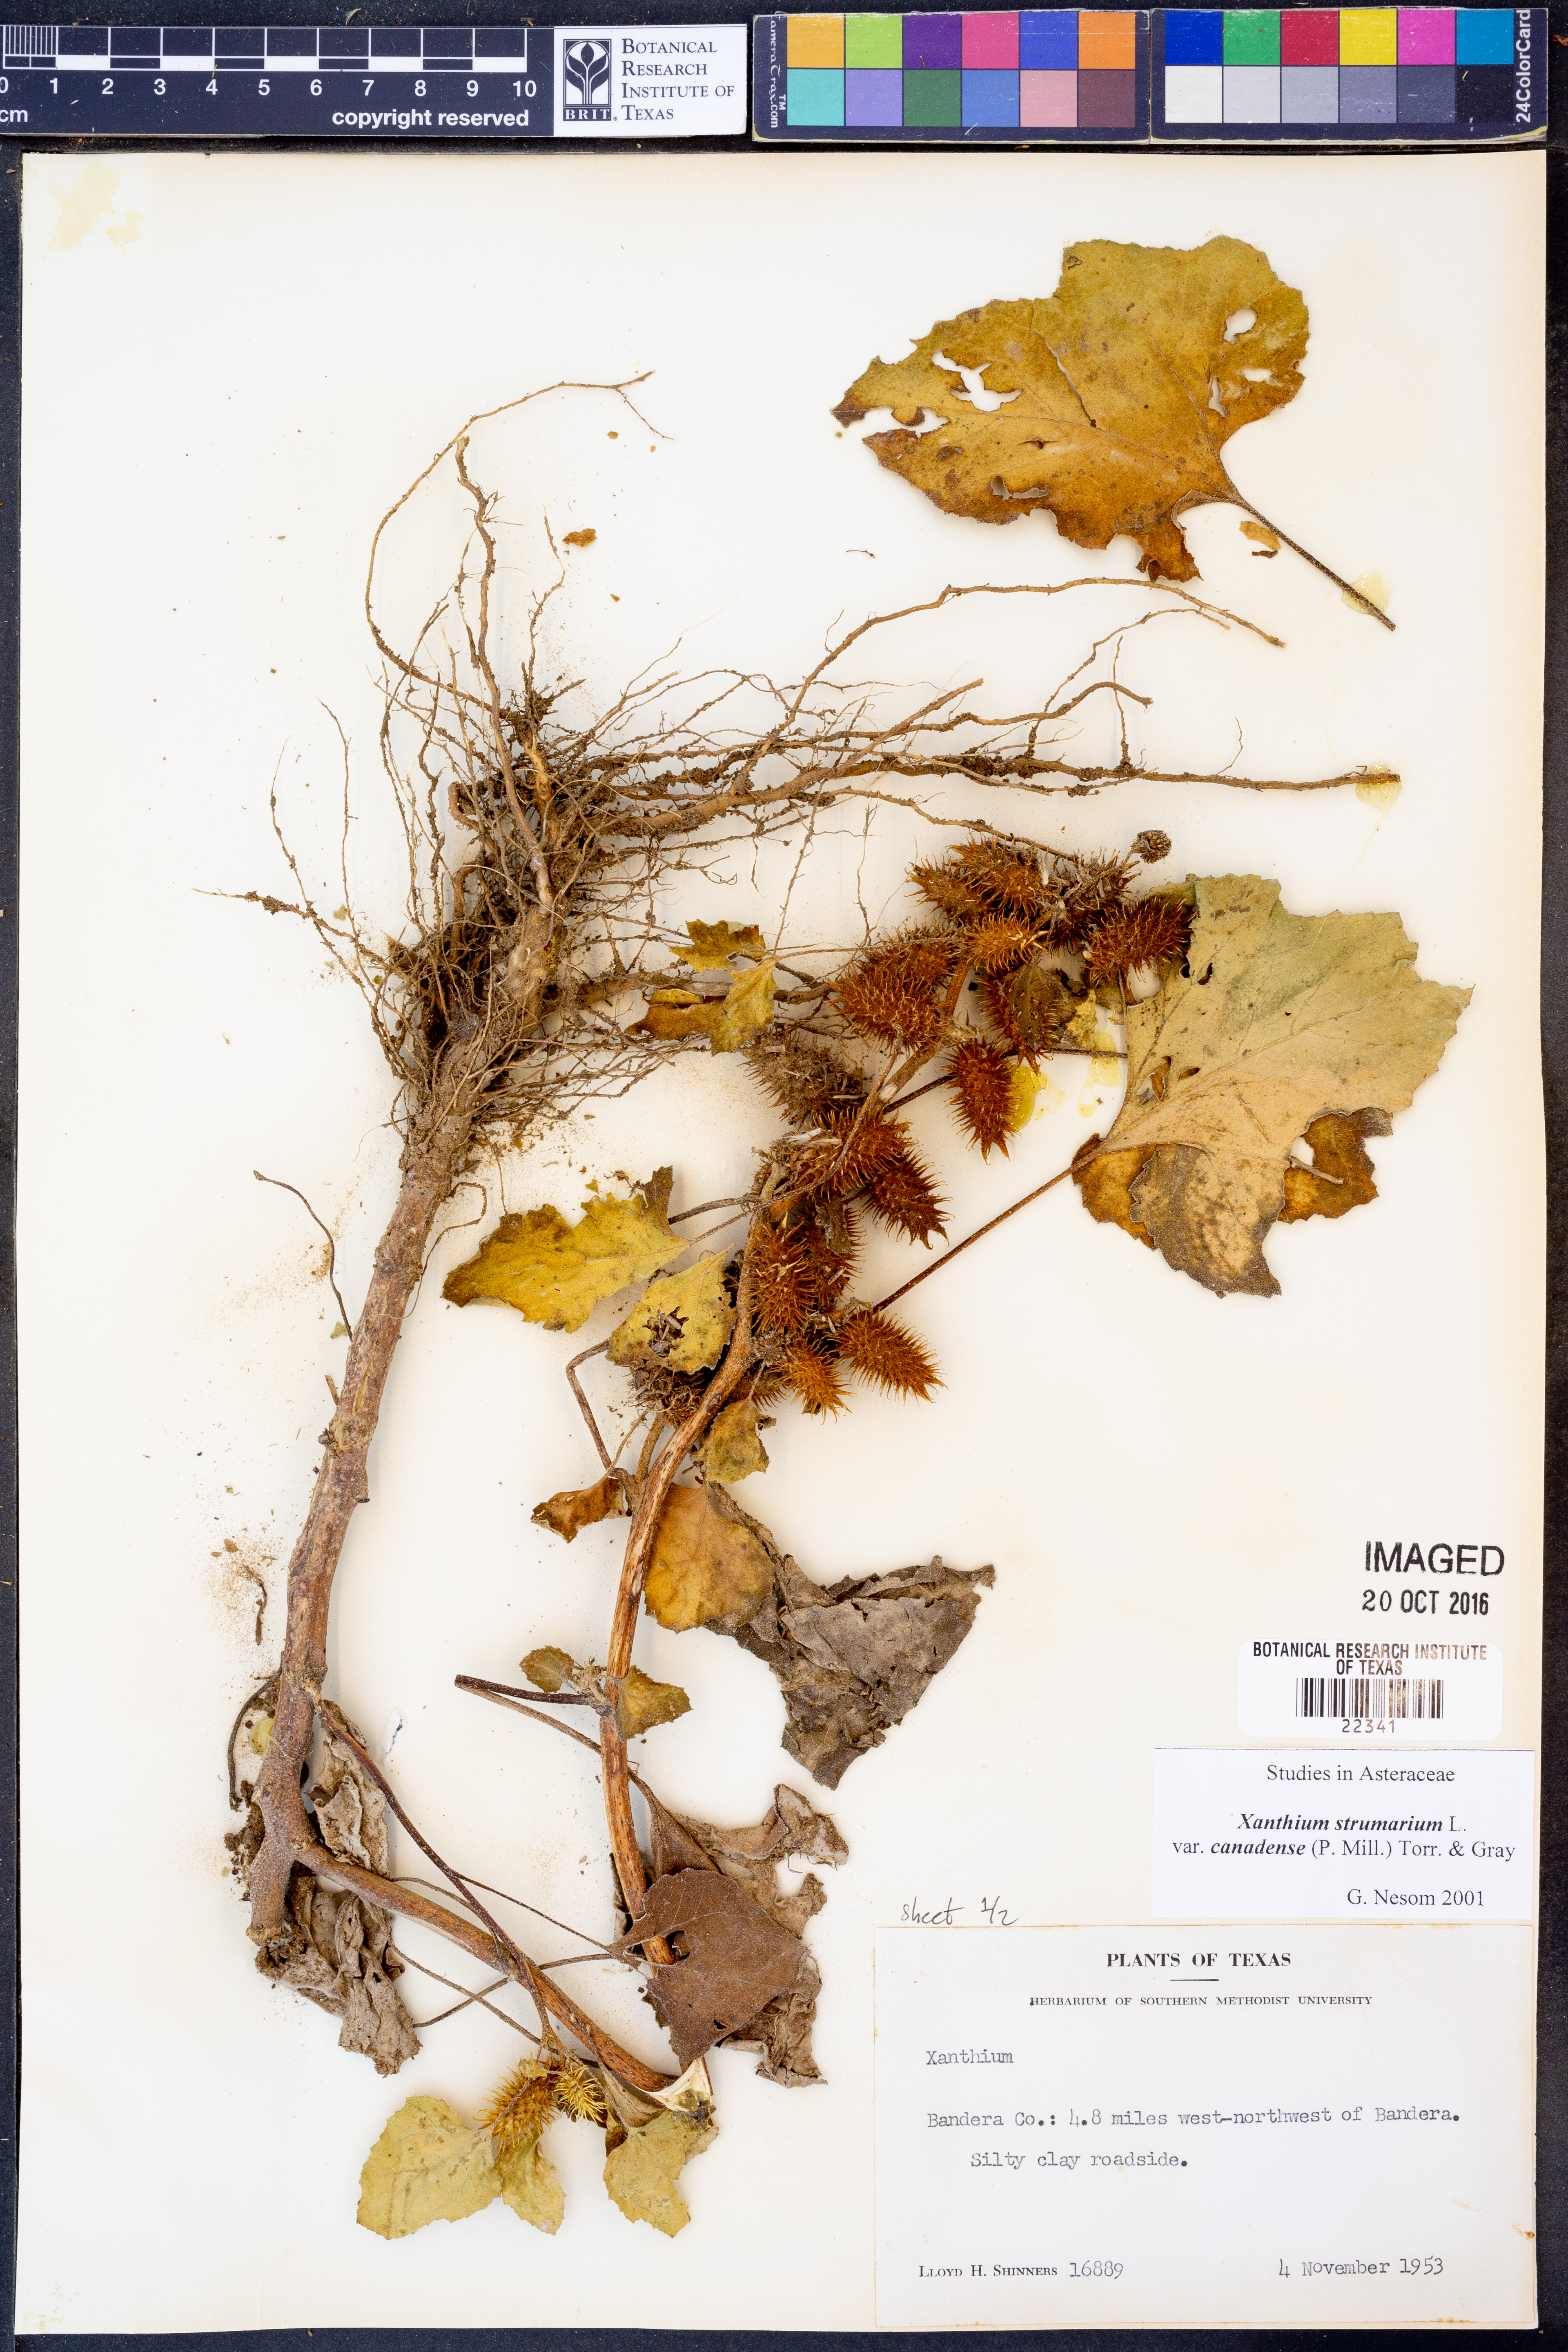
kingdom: Plantae
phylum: Tracheophyta
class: Magnoliopsida
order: Asterales
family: Asteraceae
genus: Xanthium
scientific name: Xanthium orientale
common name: Californian burr
